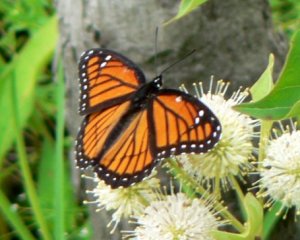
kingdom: Animalia
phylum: Arthropoda
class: Insecta
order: Lepidoptera
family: Nymphalidae
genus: Limenitis
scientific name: Limenitis archippus
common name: Viceroy
